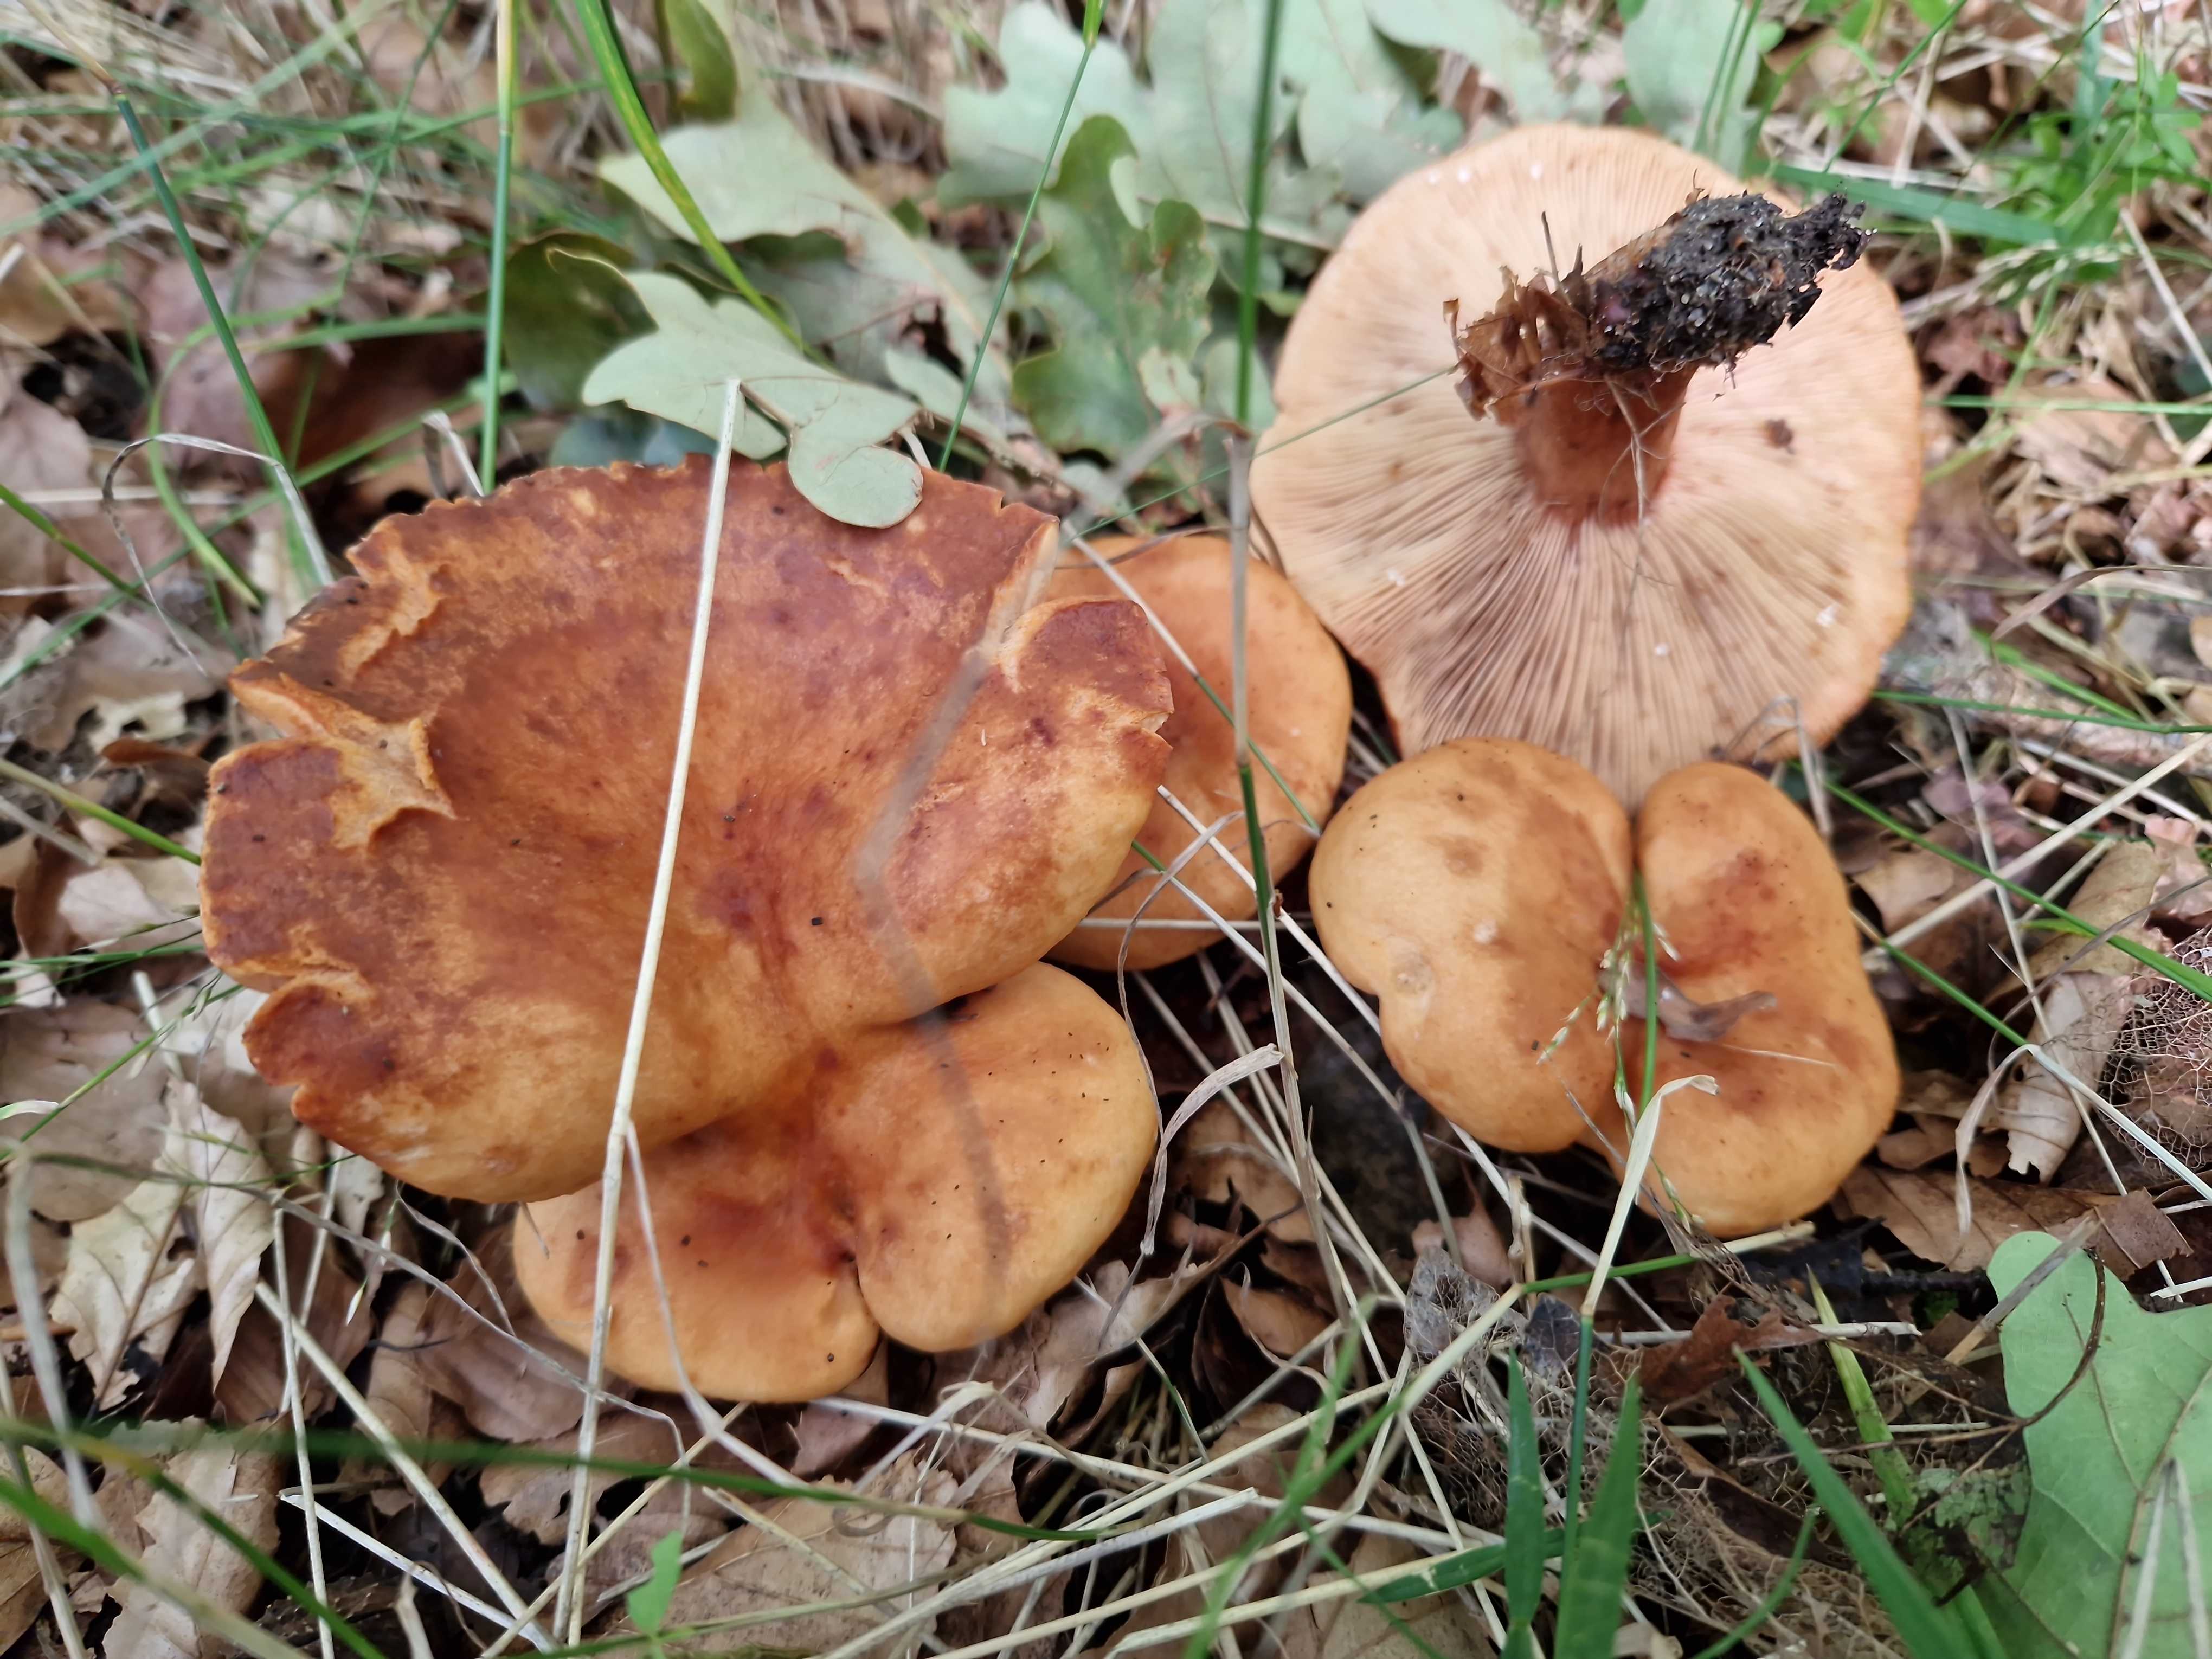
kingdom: Fungi
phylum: Basidiomycota
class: Agaricomycetes
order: Russulales
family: Russulaceae
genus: Lactarius
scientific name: Lactarius fulvissimus
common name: ræve-mælkehat
